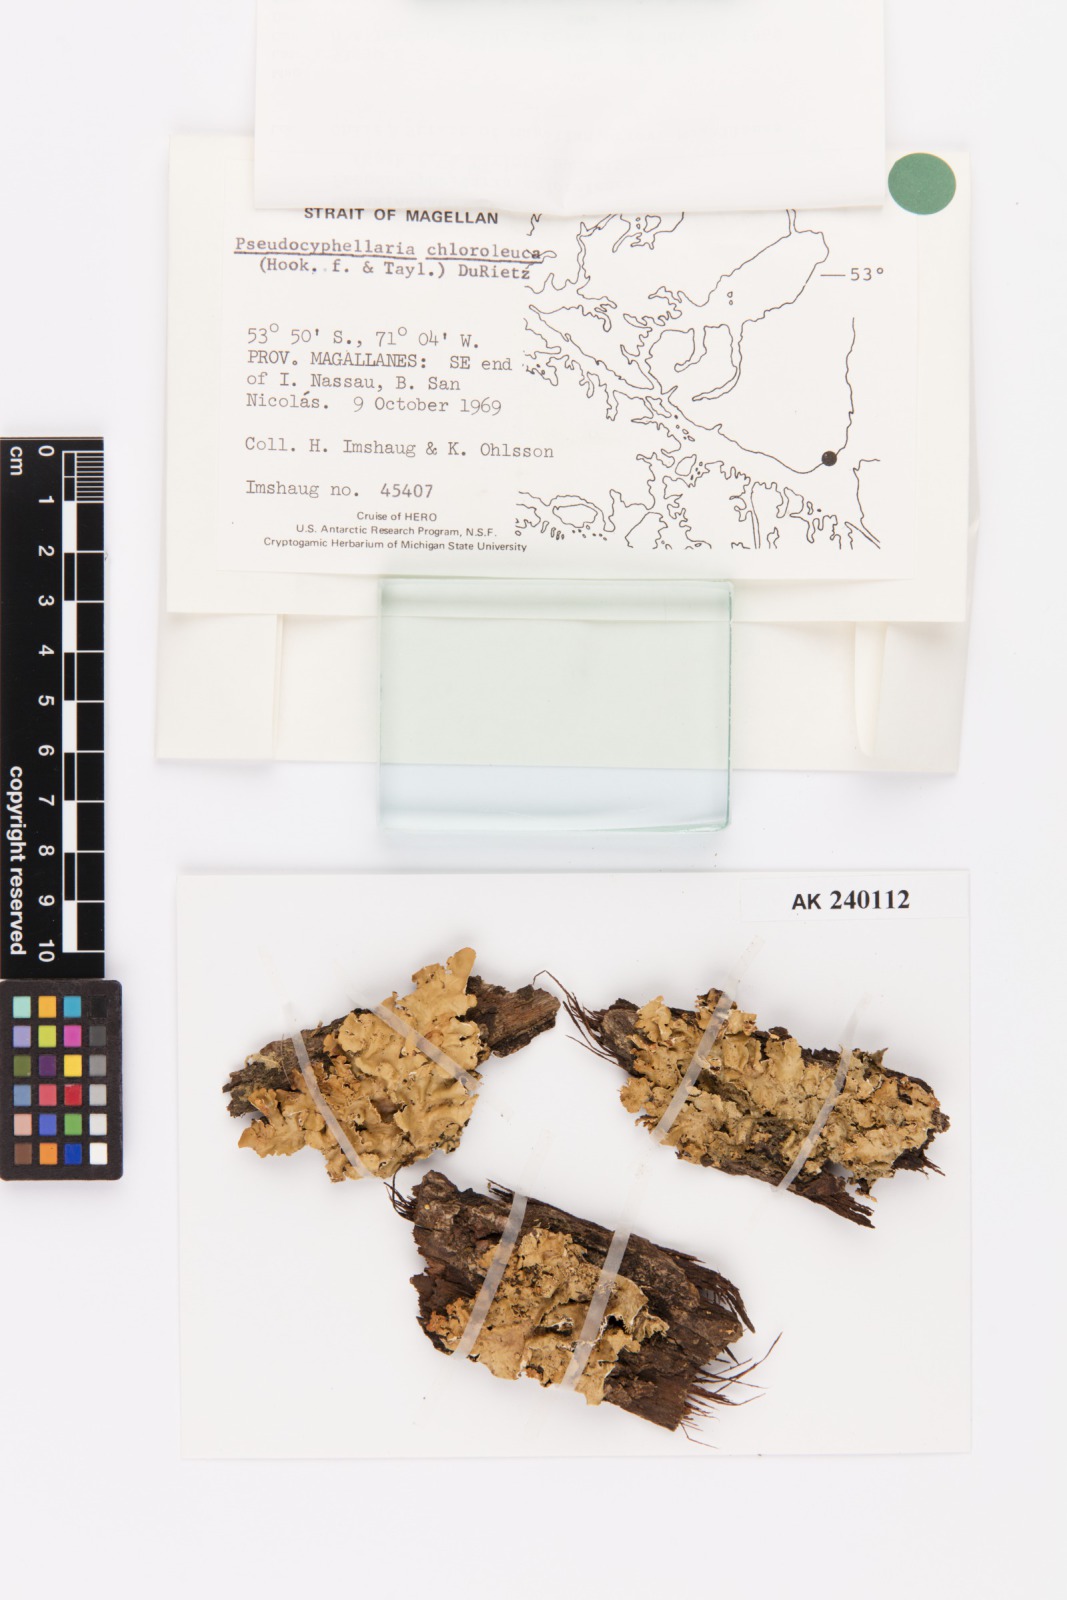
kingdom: Fungi
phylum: Ascomycota
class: Lecanoromycetes
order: Peltigerales
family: Lobariaceae
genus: Pseudocyphellaria
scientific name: Pseudocyphellaria chloroleuca
